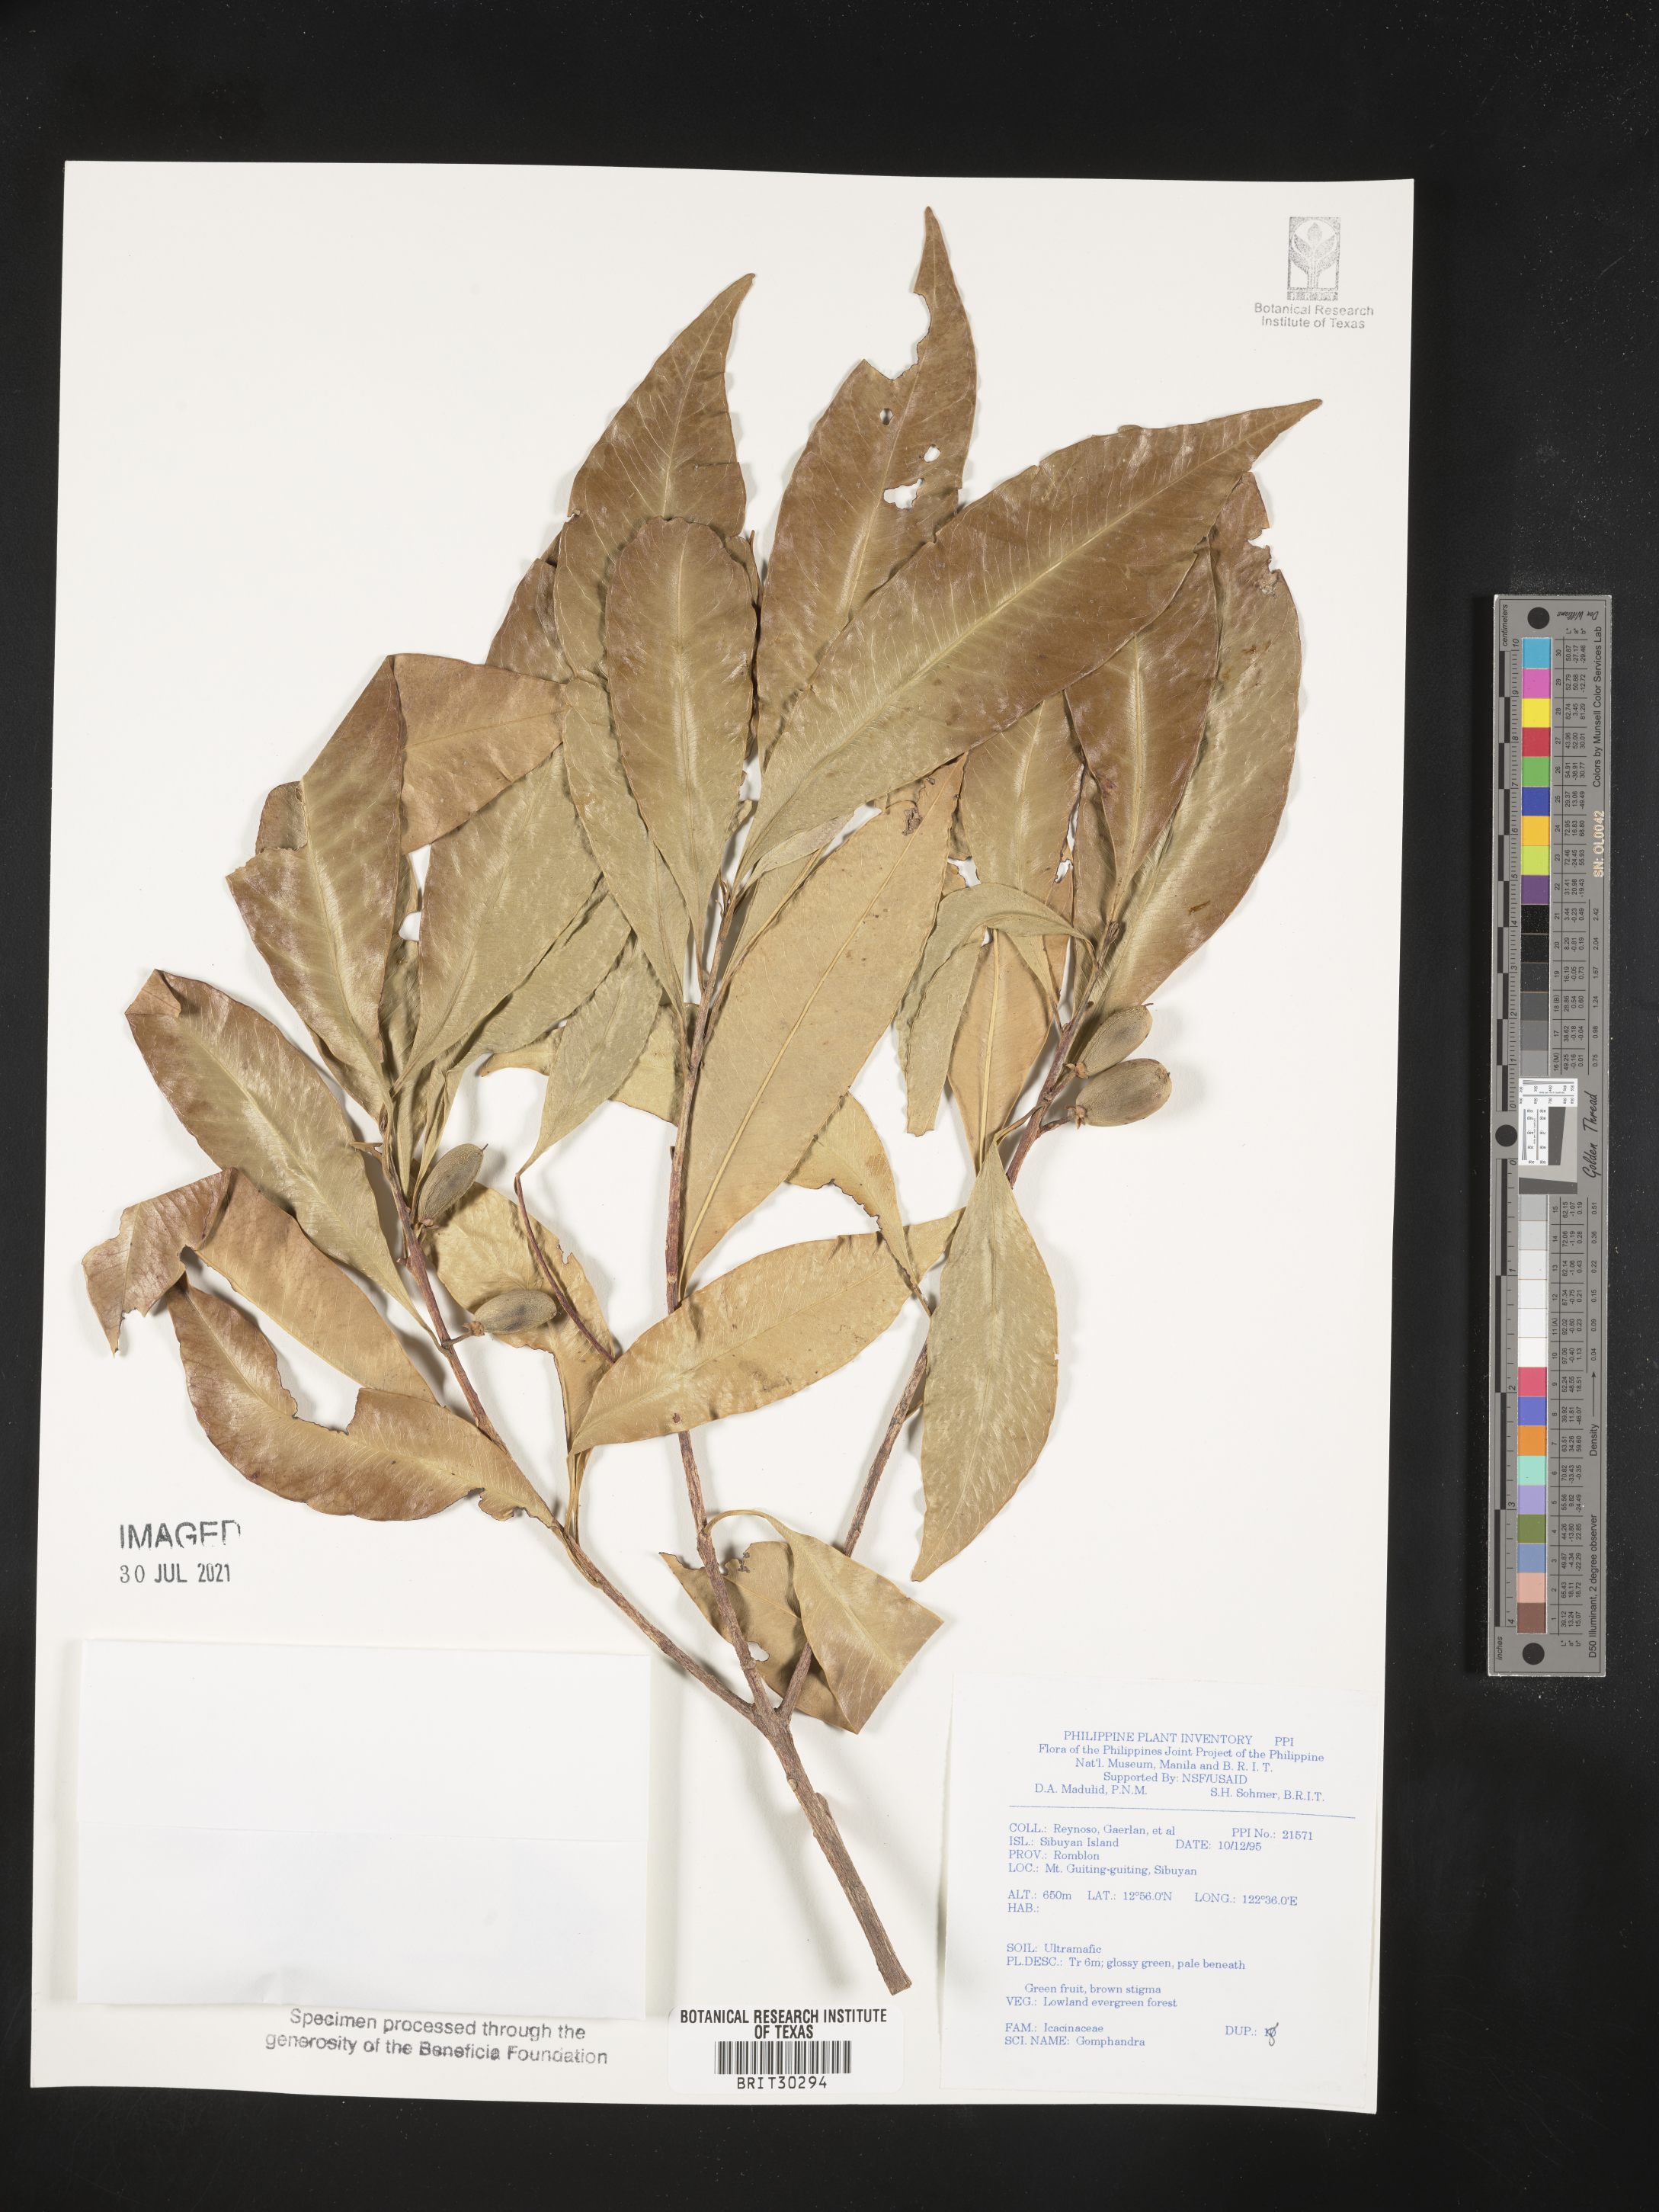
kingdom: Plantae
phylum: Tracheophyta
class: Magnoliopsida
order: Cardiopteridales
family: Stemonuraceae
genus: Gomphandra
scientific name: Gomphandra
